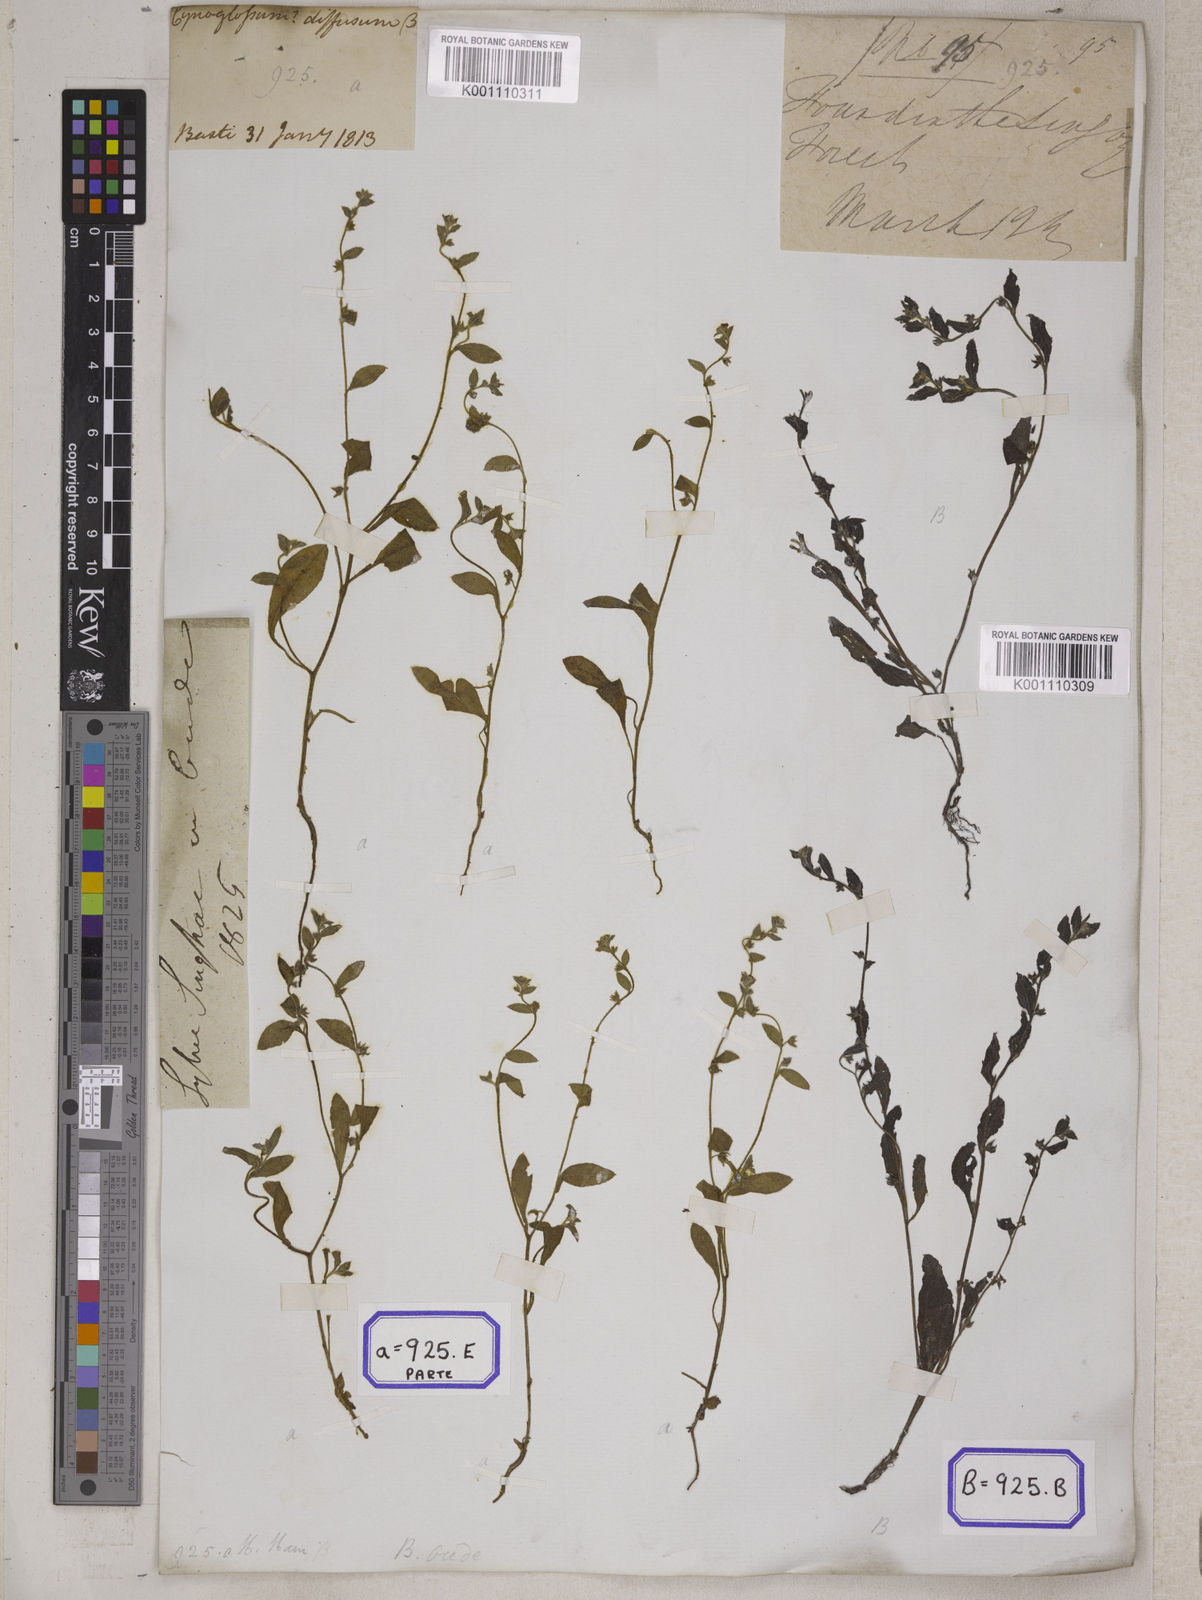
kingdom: Plantae
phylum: Tracheophyta
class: Magnoliopsida
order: Boraginales
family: Boraginaceae
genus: Cynoglossum
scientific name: Cynoglossum
